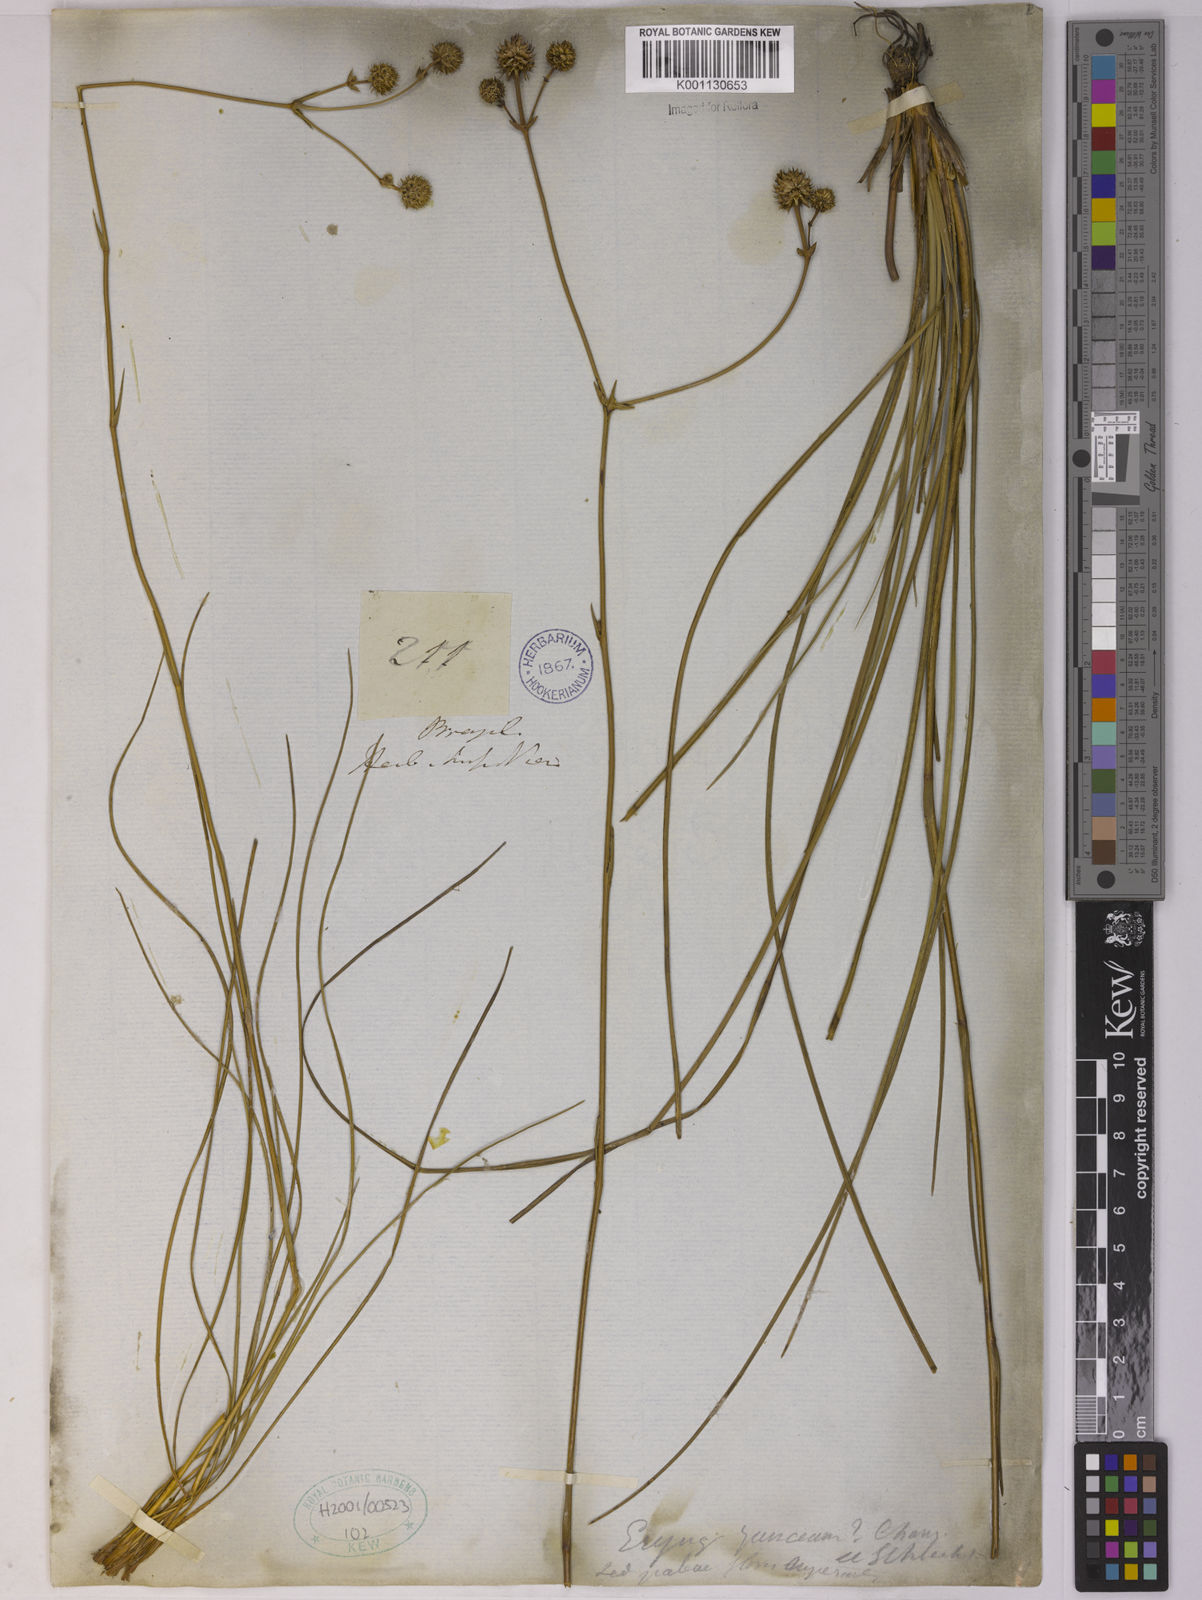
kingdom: Plantae
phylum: Tracheophyta
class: Magnoliopsida
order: Apiales
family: Apiaceae
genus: Eryngium
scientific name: Eryngium junceum
